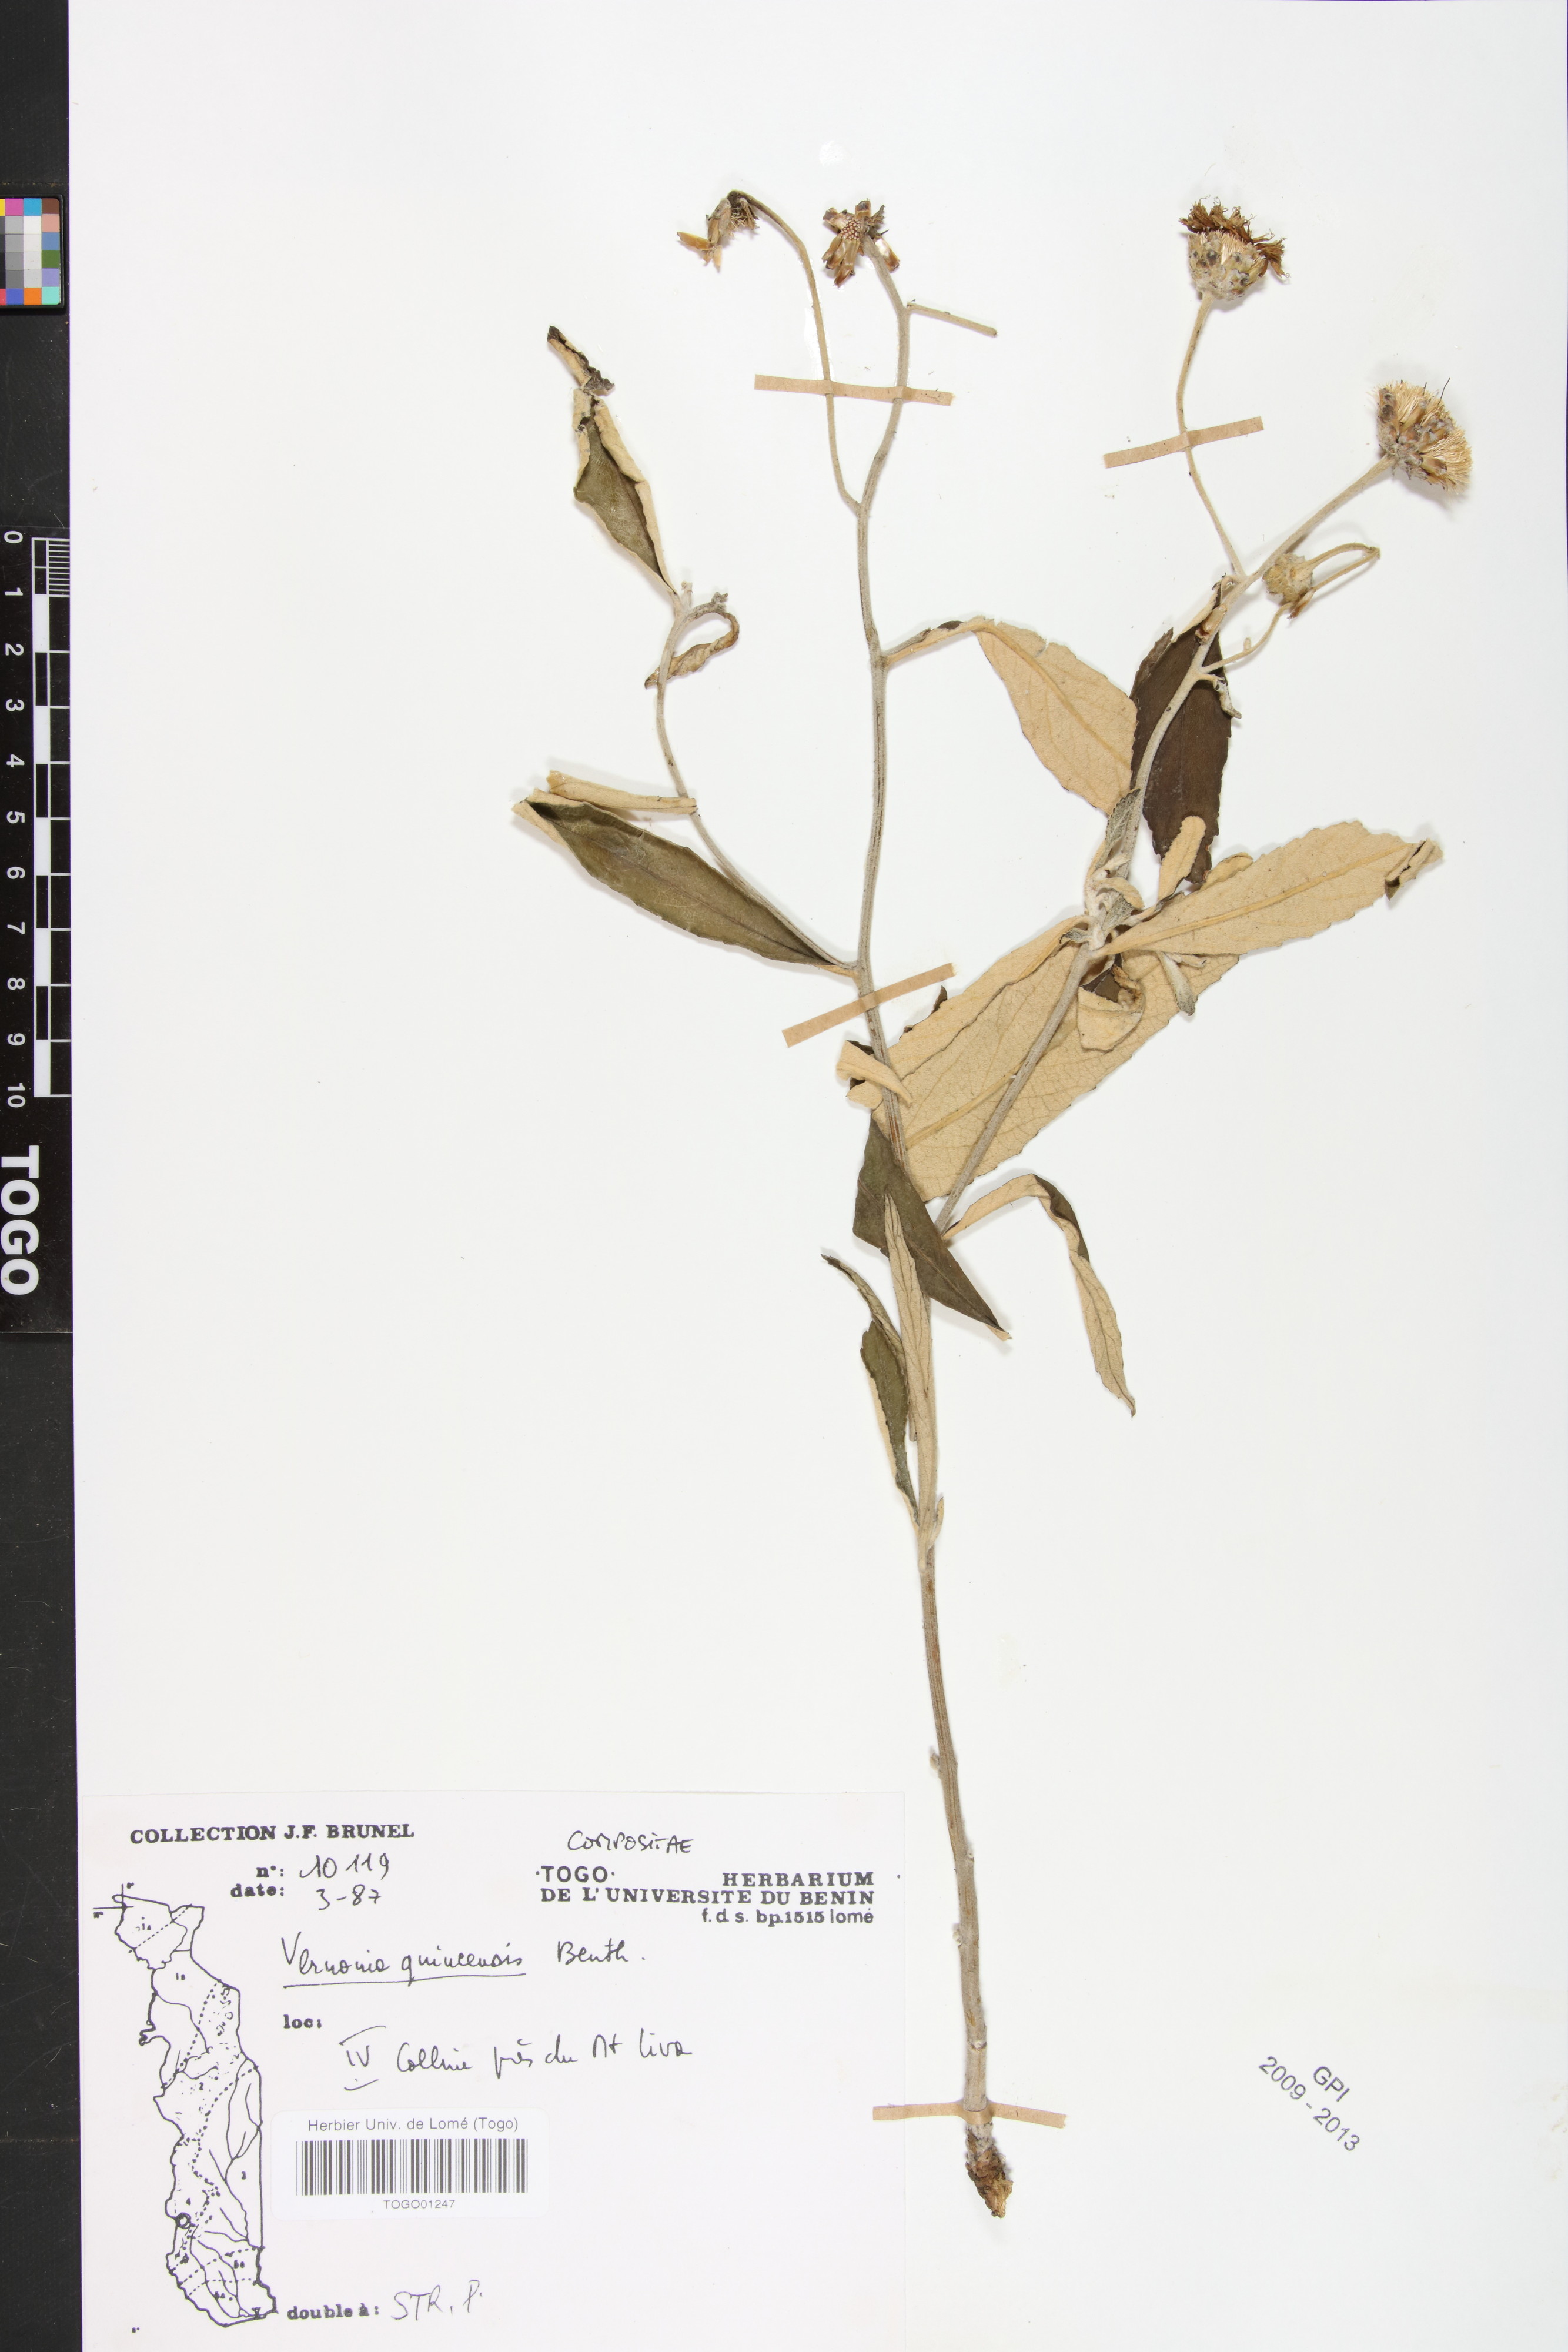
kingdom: Plantae
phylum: Tracheophyta
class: Magnoliopsida
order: Asterales
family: Asteraceae
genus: Baccharoides
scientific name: Baccharoides guineensis
